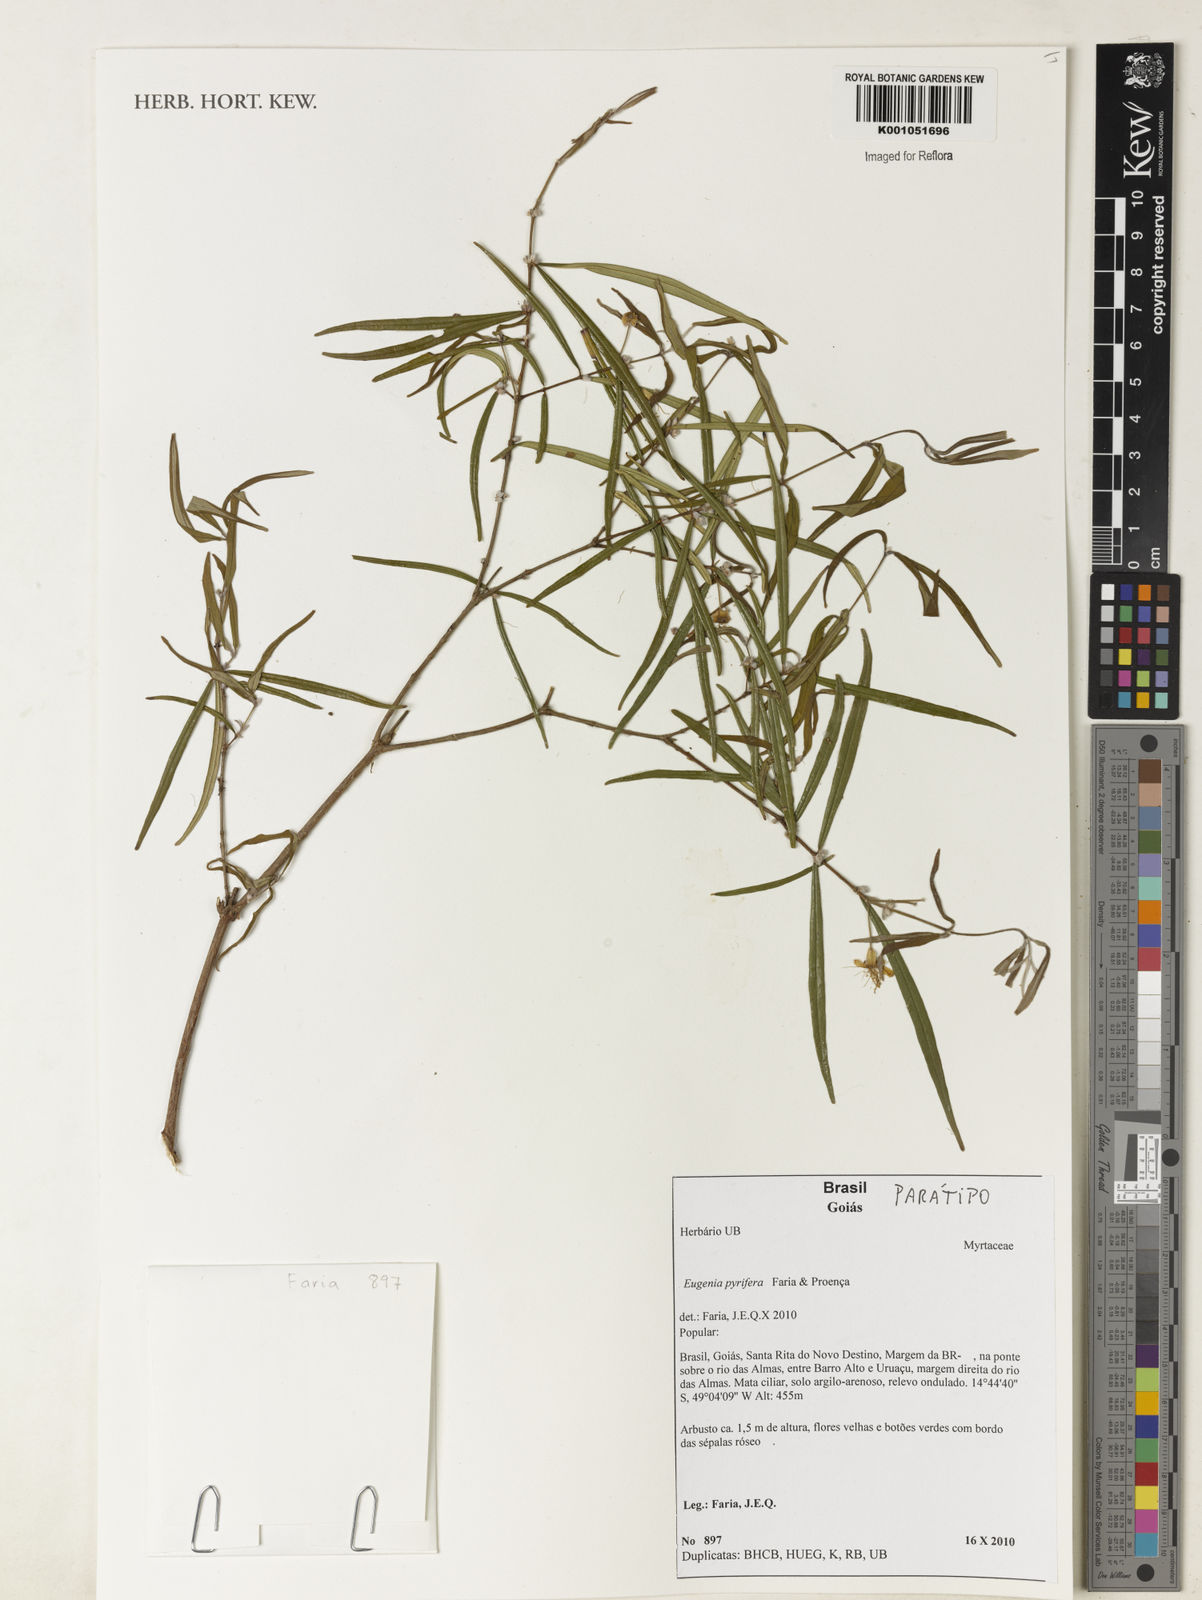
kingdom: Plantae
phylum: Tracheophyta
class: Magnoliopsida
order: Myrtales
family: Myrtaceae
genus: Eugenia
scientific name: Eugenia
